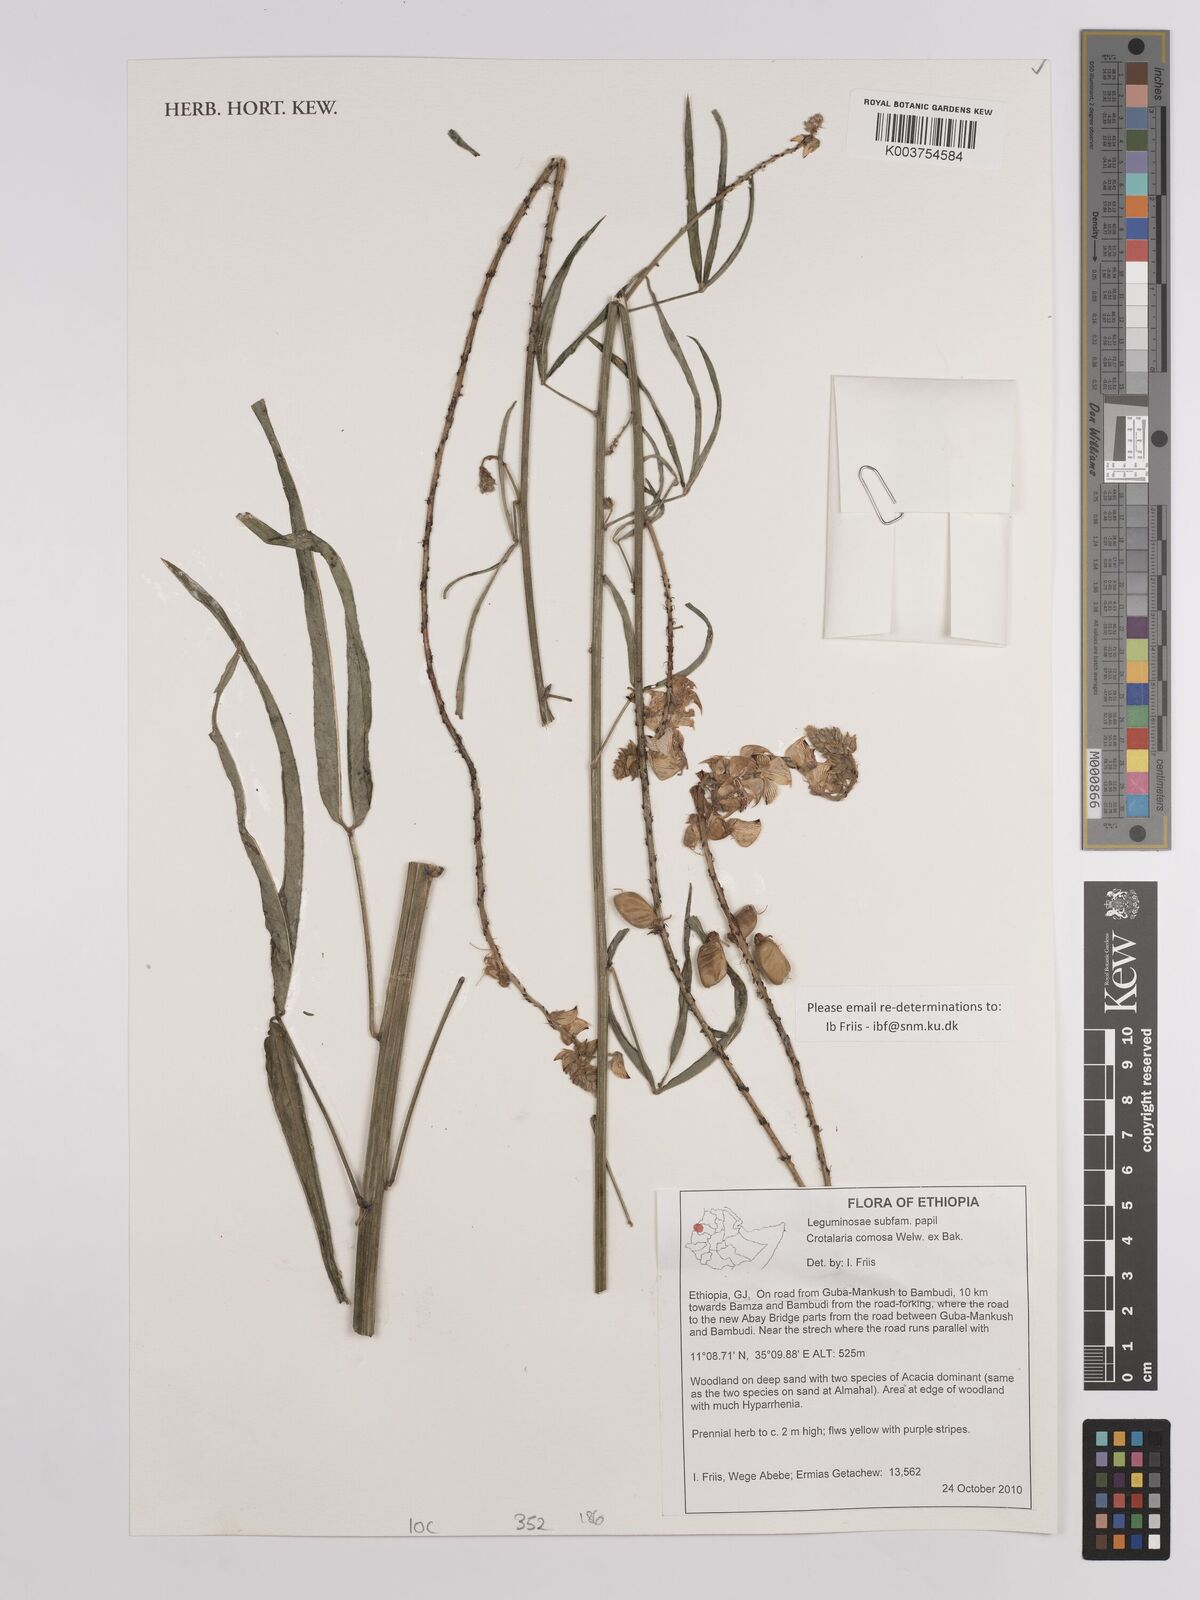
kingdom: Plantae
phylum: Tracheophyta
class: Magnoliopsida
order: Fabales
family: Fabaceae
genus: Crotalaria
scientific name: Crotalaria comosa
